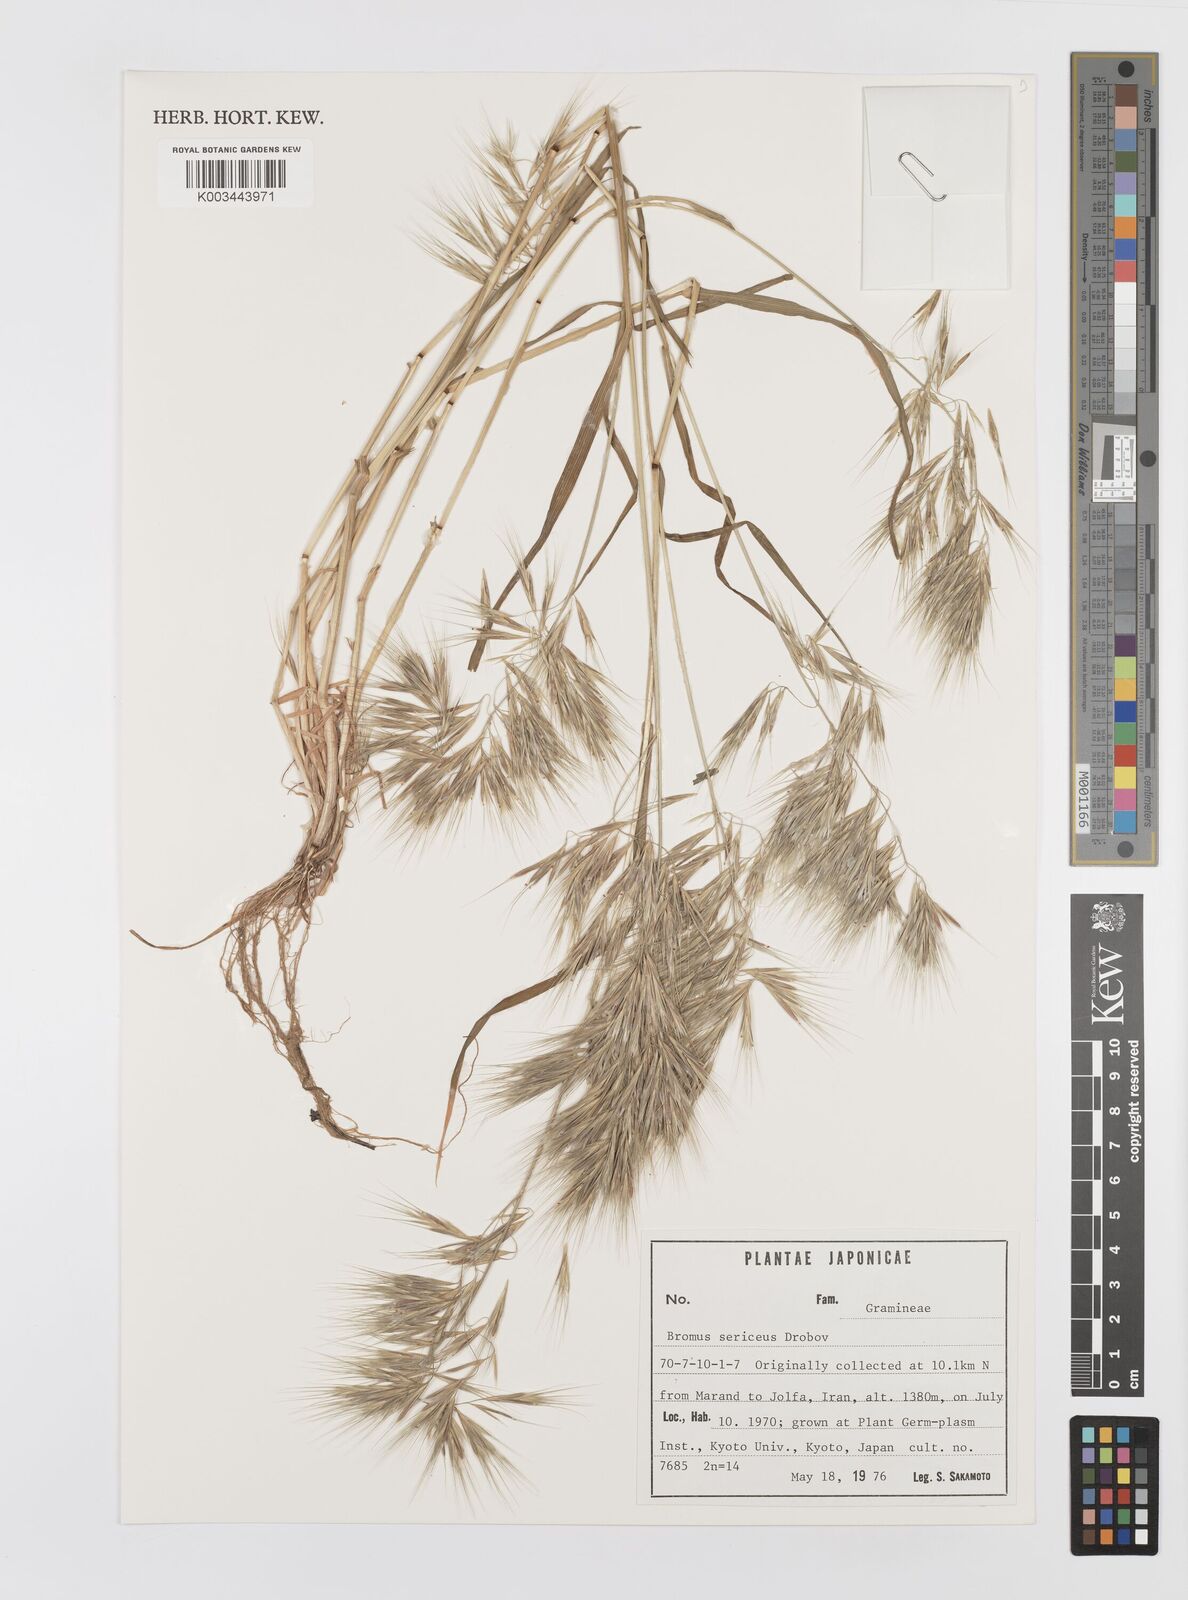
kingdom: Plantae
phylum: Tracheophyta
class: Liliopsida
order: Poales
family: Poaceae
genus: Bromus
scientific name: Bromus moeszii
